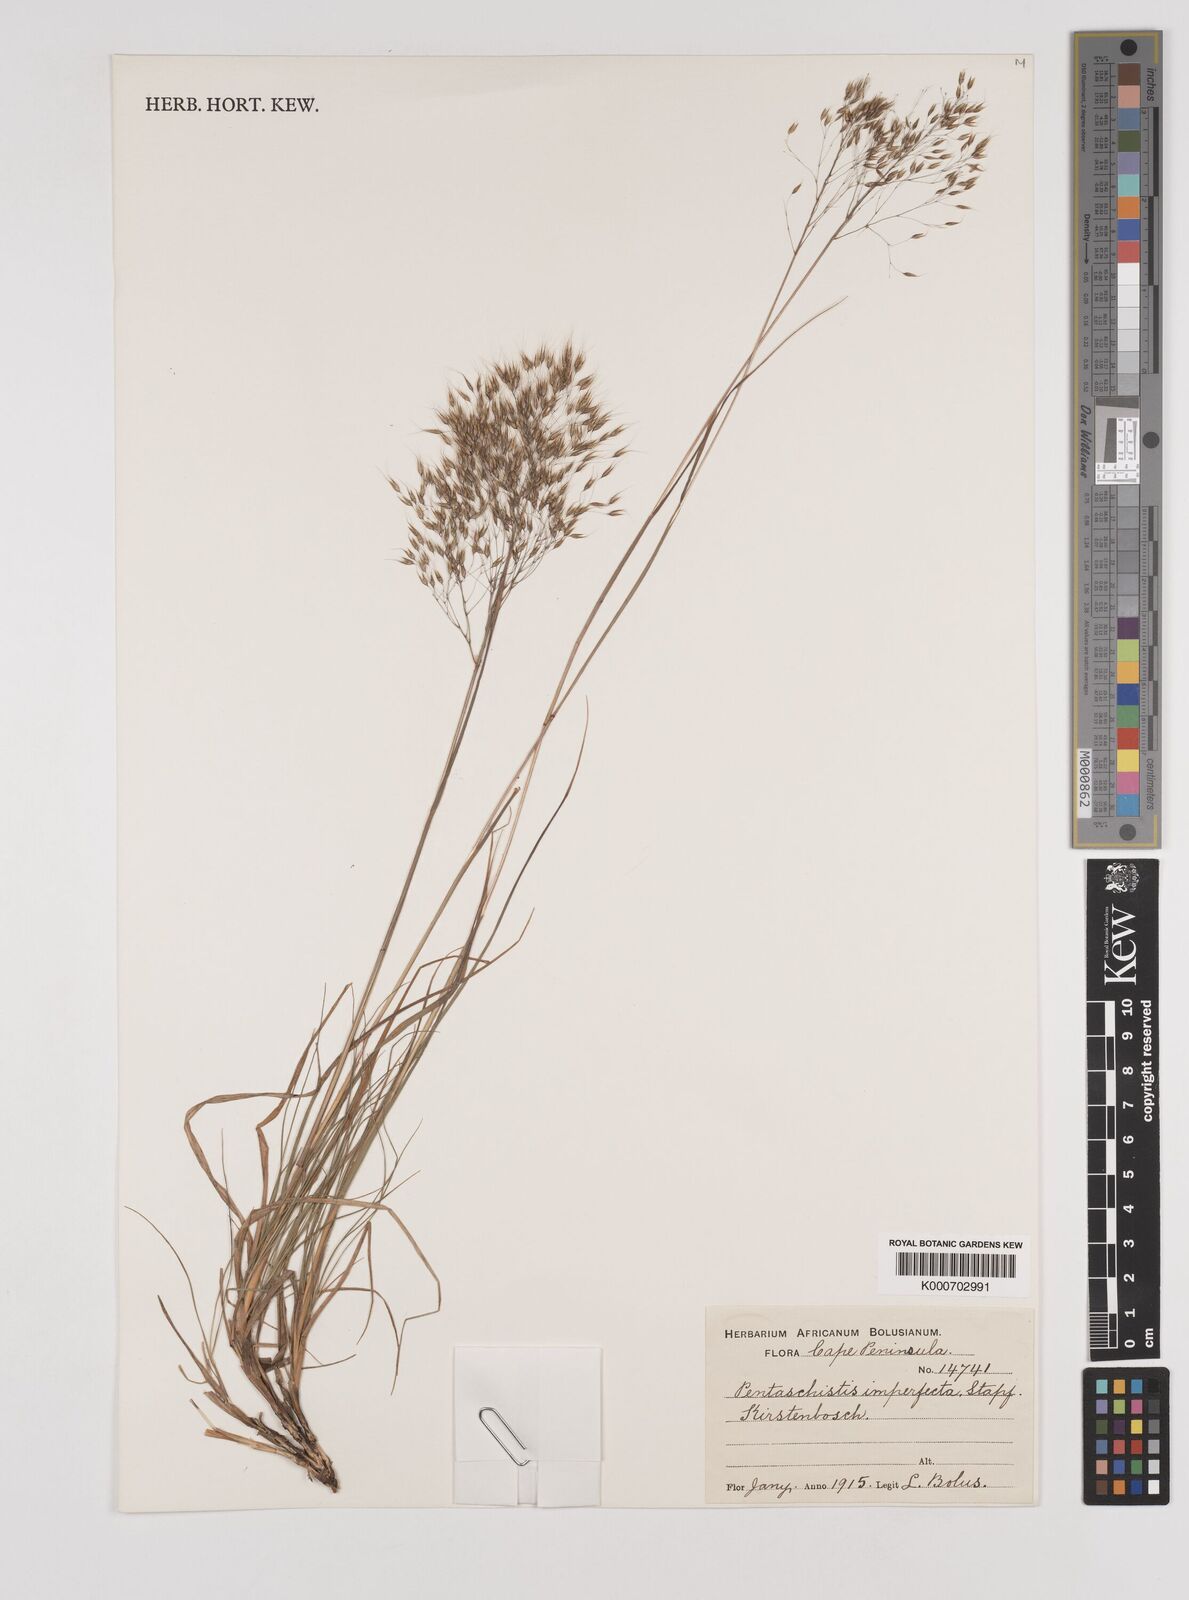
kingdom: Plantae
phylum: Tracheophyta
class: Liliopsida
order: Poales
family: Poaceae
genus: Pentameris
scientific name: Pentameris pallida
